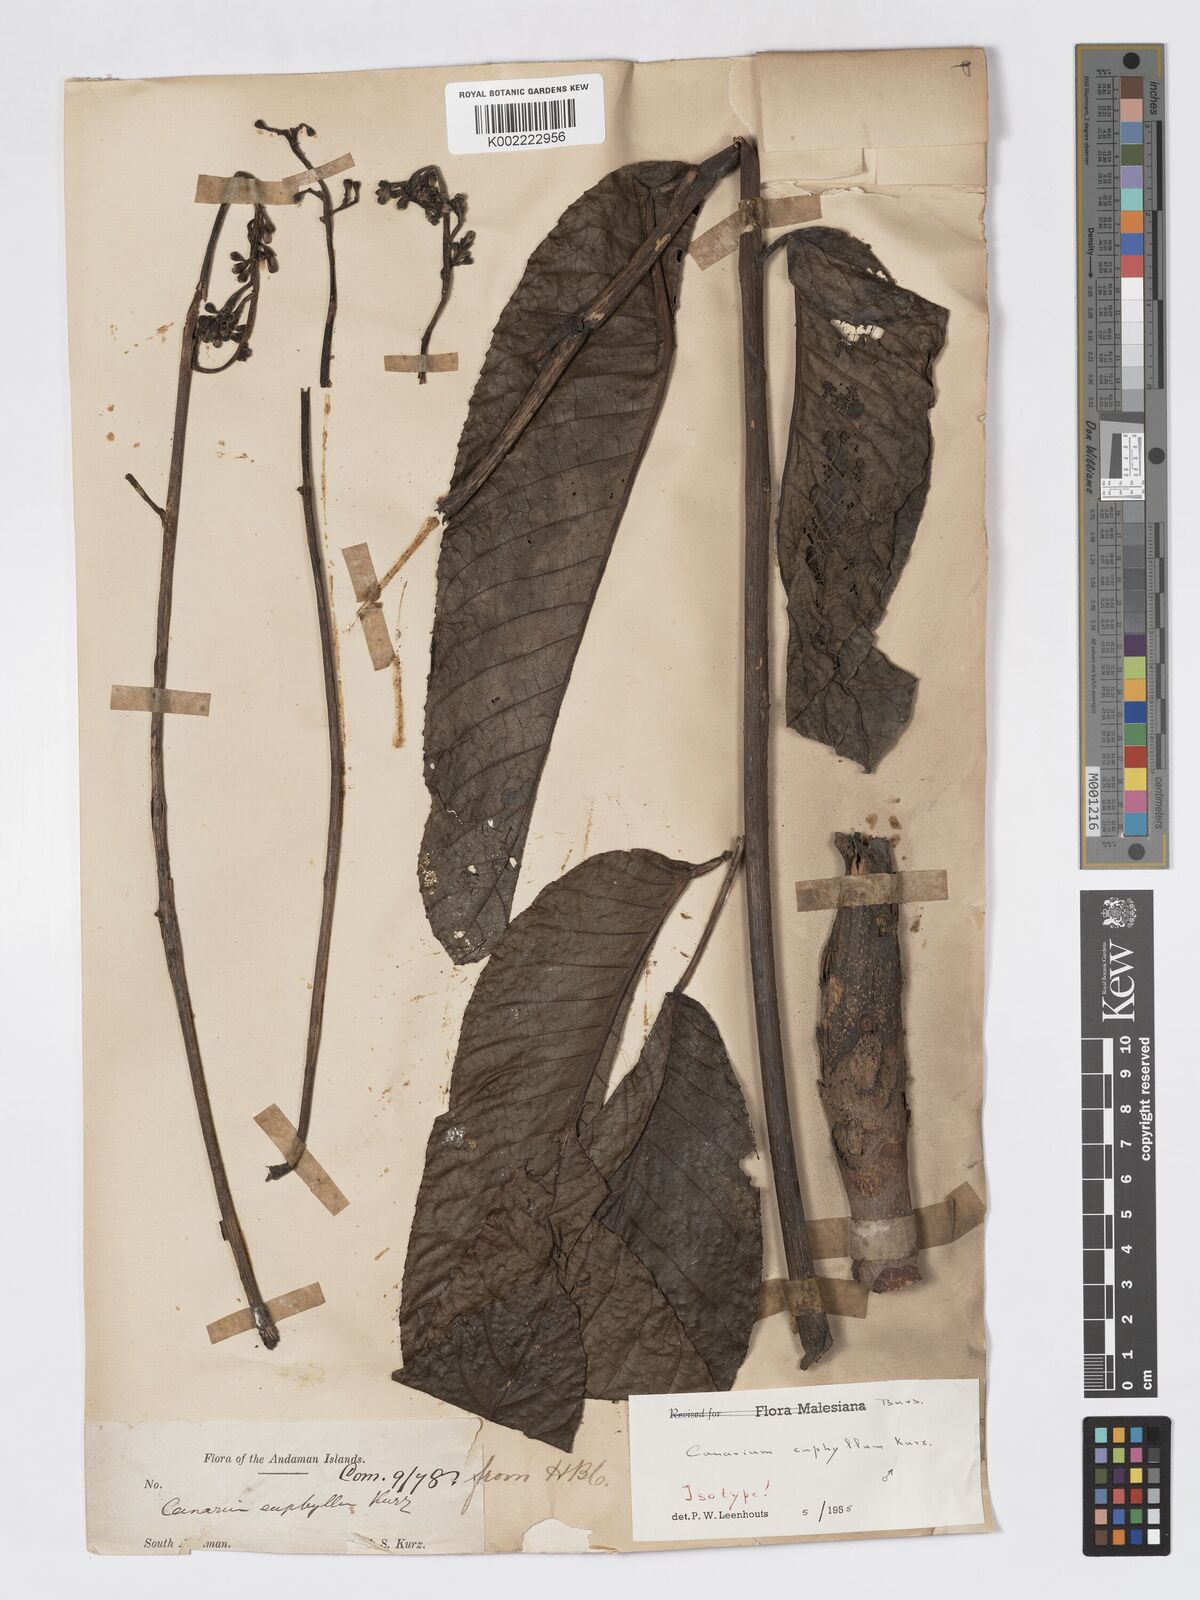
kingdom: Plantae
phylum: Tracheophyta
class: Magnoliopsida
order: Sapindales
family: Burseraceae
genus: Canarium
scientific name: Canarium euphyllum
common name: White dhup
